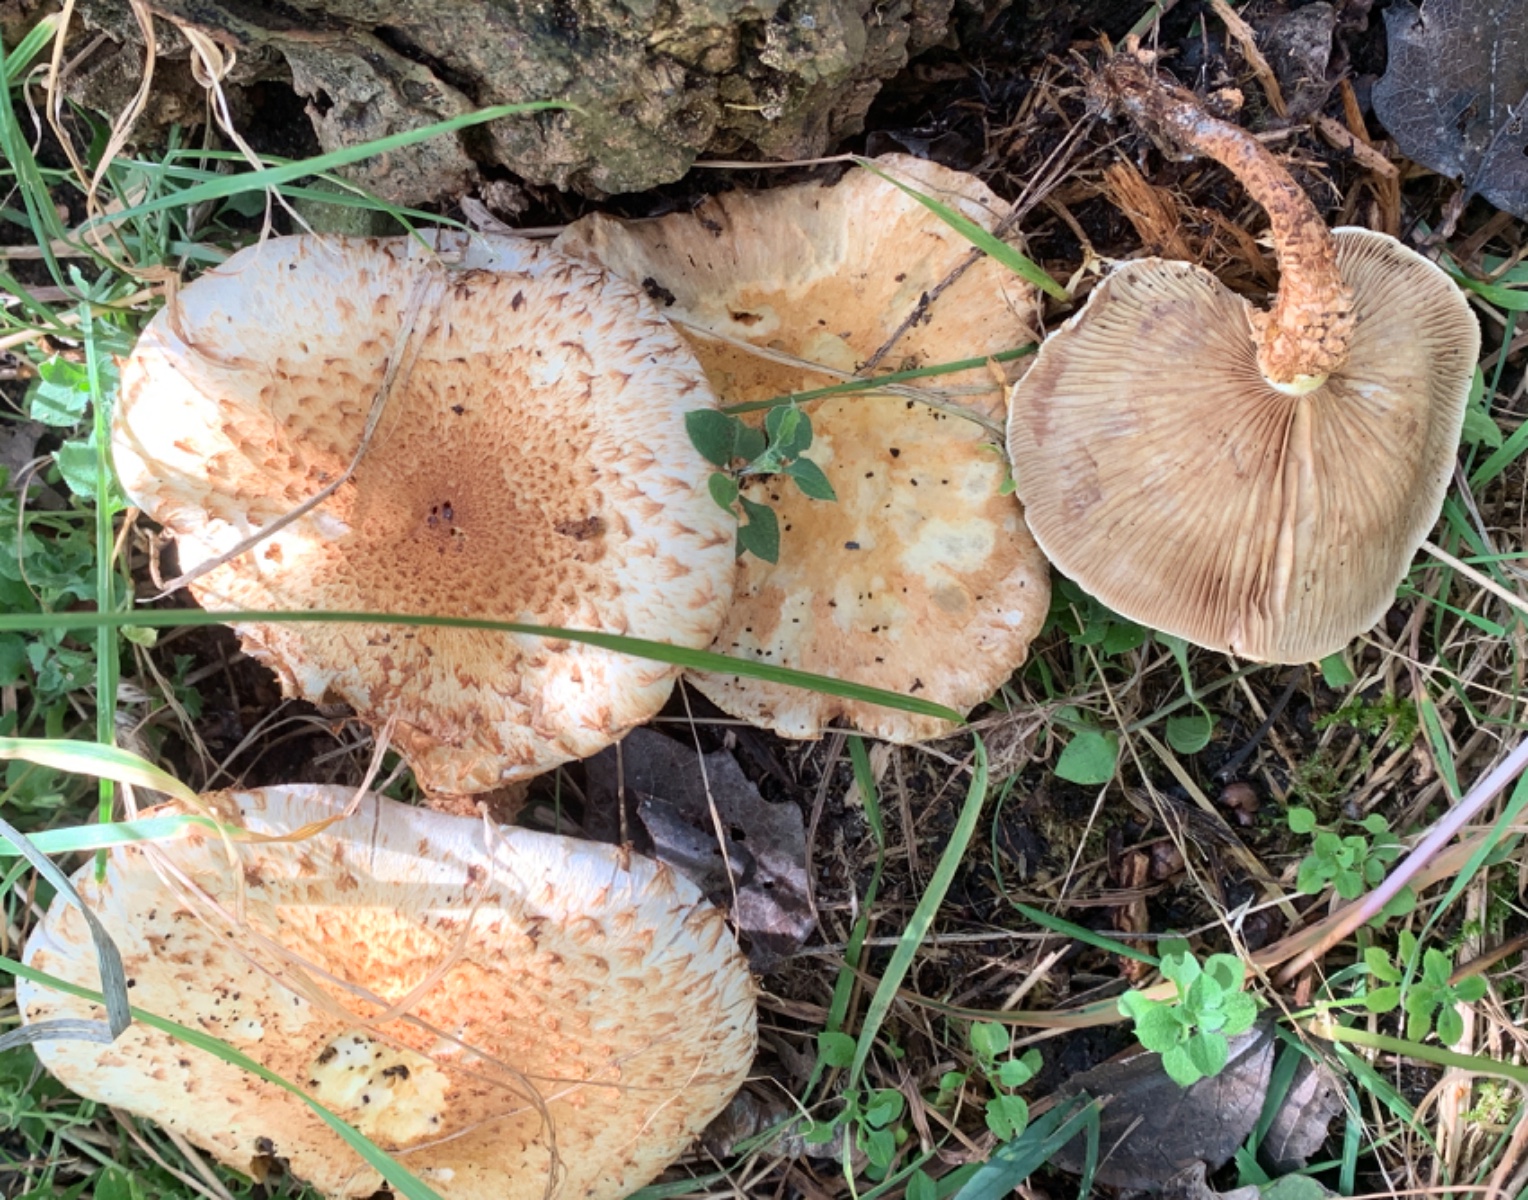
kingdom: Fungi
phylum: Basidiomycota
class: Agaricomycetes
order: Agaricales
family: Strophariaceae
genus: Pholiota
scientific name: Pholiota squarrosa
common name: krumskællet skælhat
